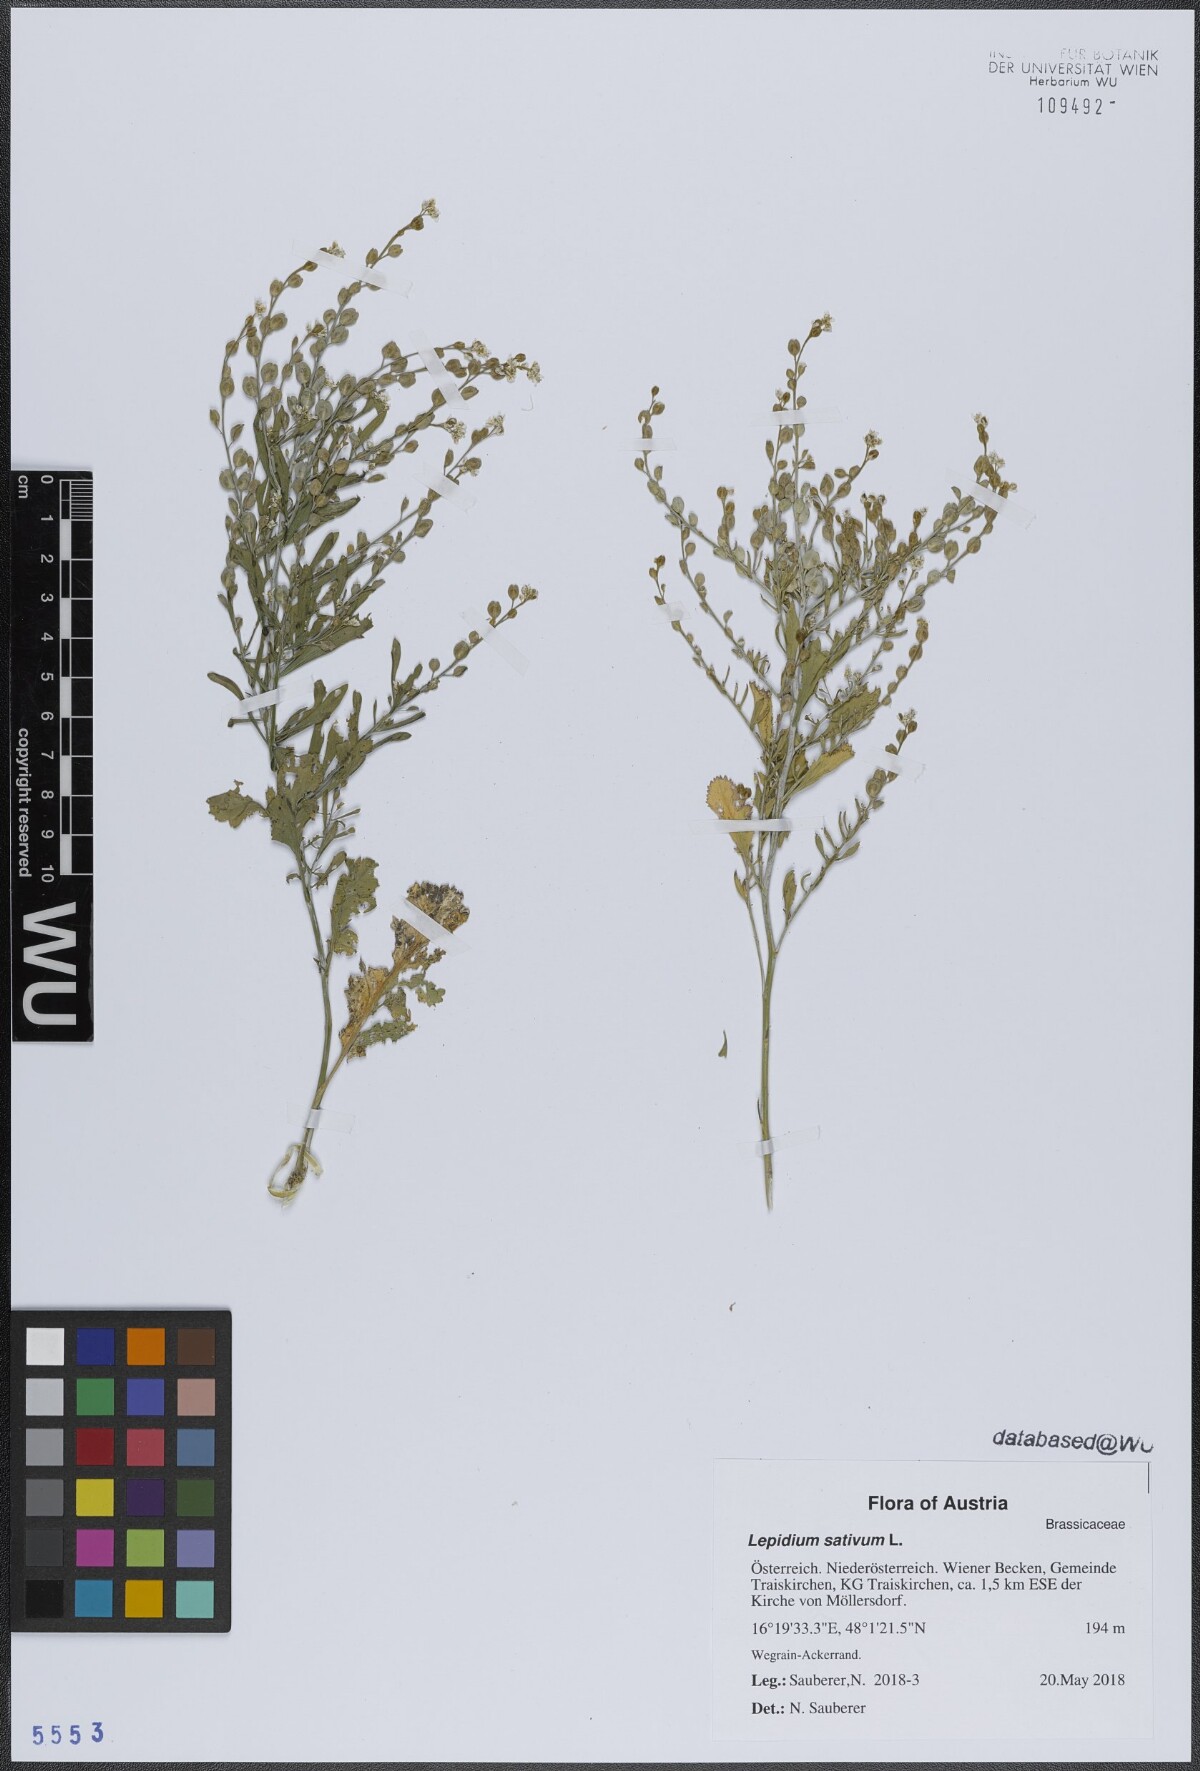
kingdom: Plantae
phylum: Tracheophyta
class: Magnoliopsida
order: Brassicales
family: Brassicaceae
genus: Lepidium
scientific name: Lepidium sativum
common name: Garden cress
